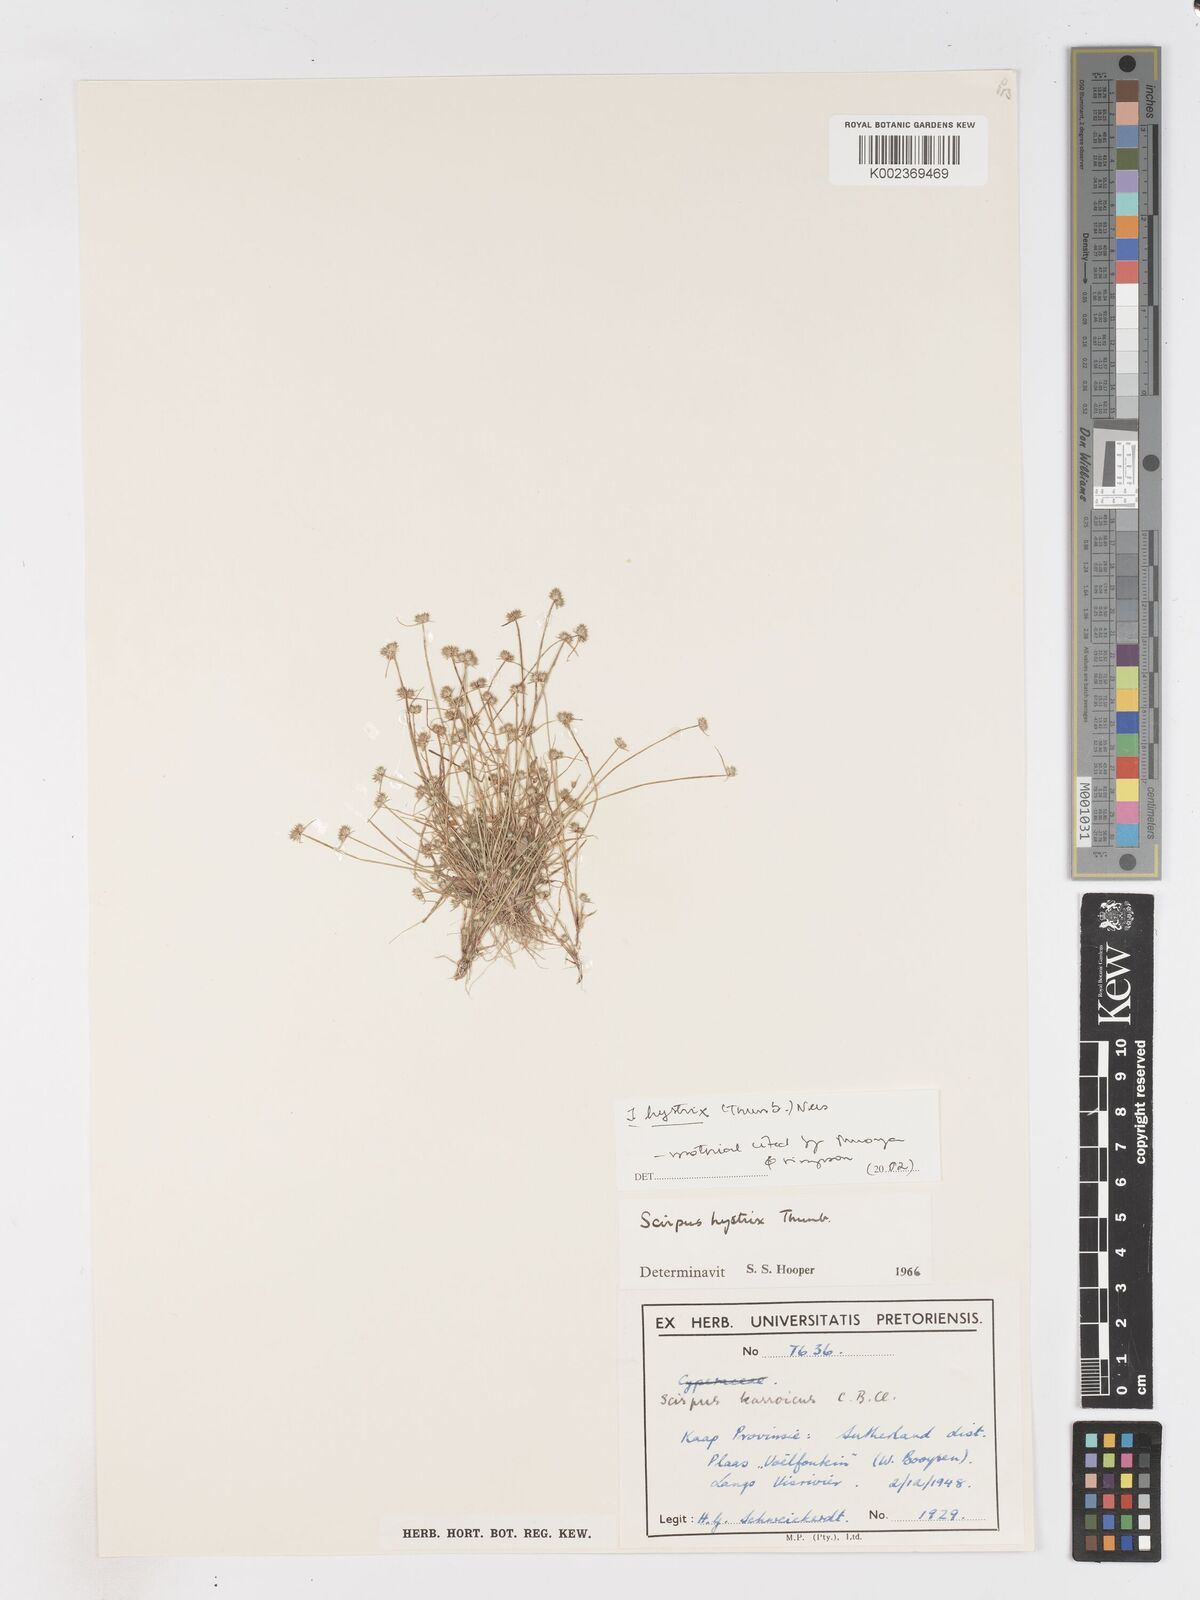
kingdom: Plantae
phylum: Tracheophyta
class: Liliopsida
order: Poales
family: Cyperaceae
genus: Isolepis
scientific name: Isolepis hystrix
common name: Bottlebrush bulrush
